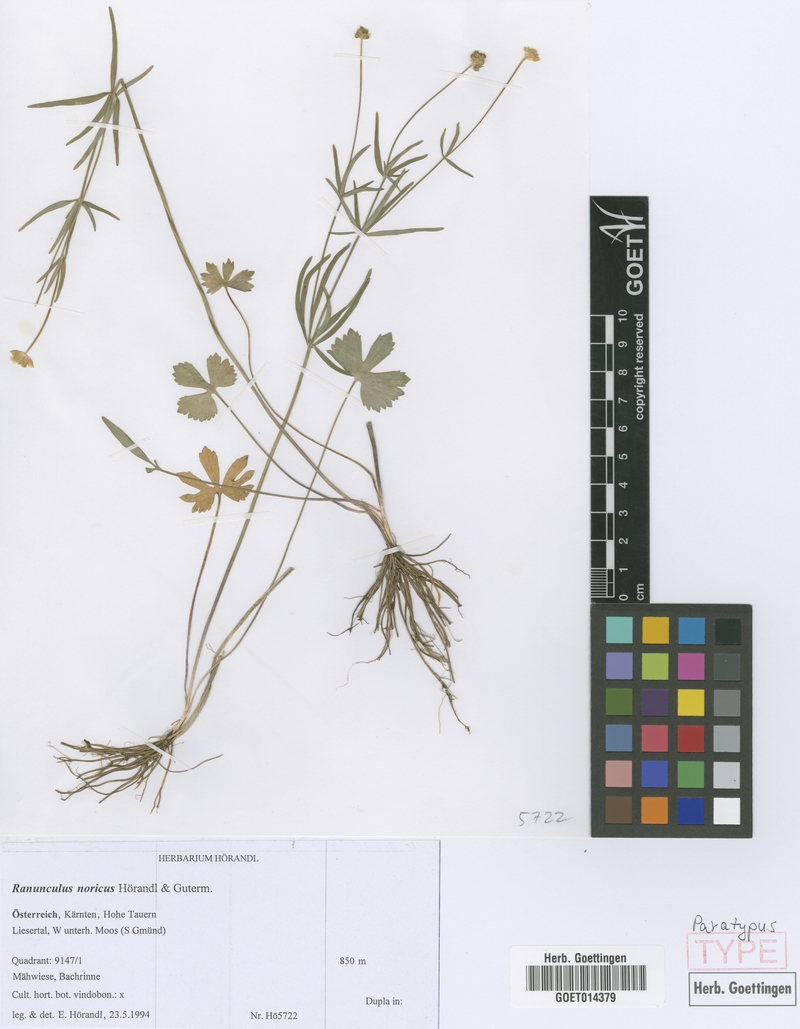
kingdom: Plantae
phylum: Tracheophyta
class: Magnoliopsida
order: Ranunculales
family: Ranunculaceae
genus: Ranunculus
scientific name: Ranunculus noricus
